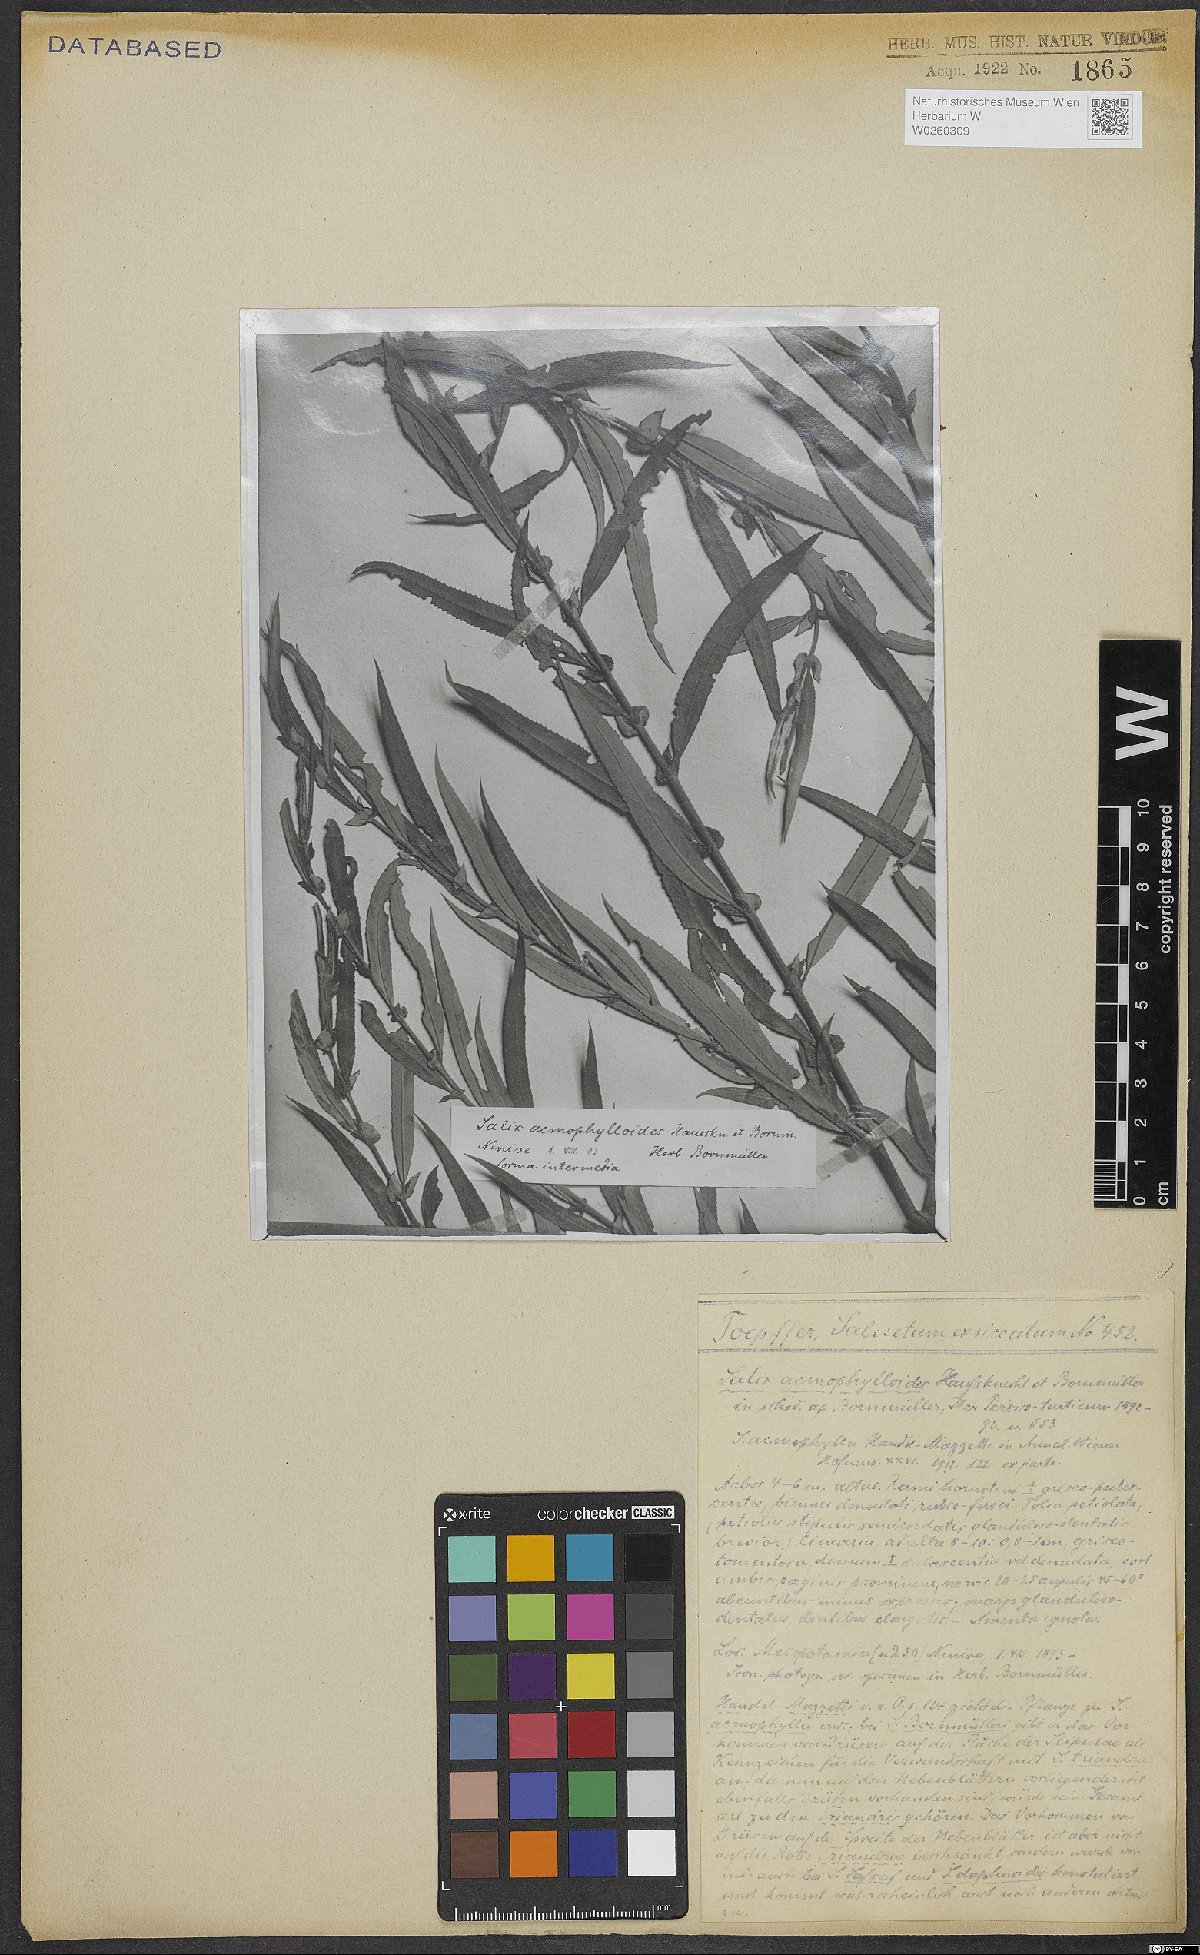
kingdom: Plantae
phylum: Tracheophyta
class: Magnoliopsida
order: Malpighiales
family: Salicaceae
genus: Salix
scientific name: Salix
